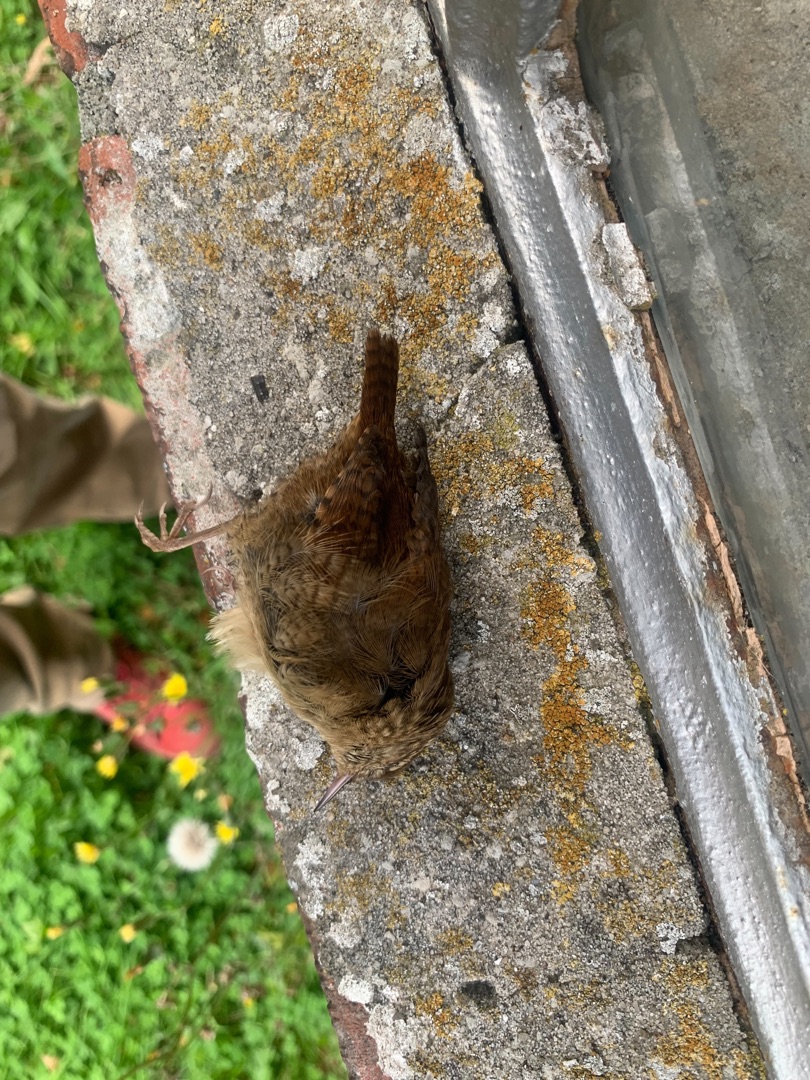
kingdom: Animalia
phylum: Chordata
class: Aves
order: Passeriformes
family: Troglodytidae
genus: Troglodytes
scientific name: Troglodytes troglodytes
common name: Gærdesmutte
